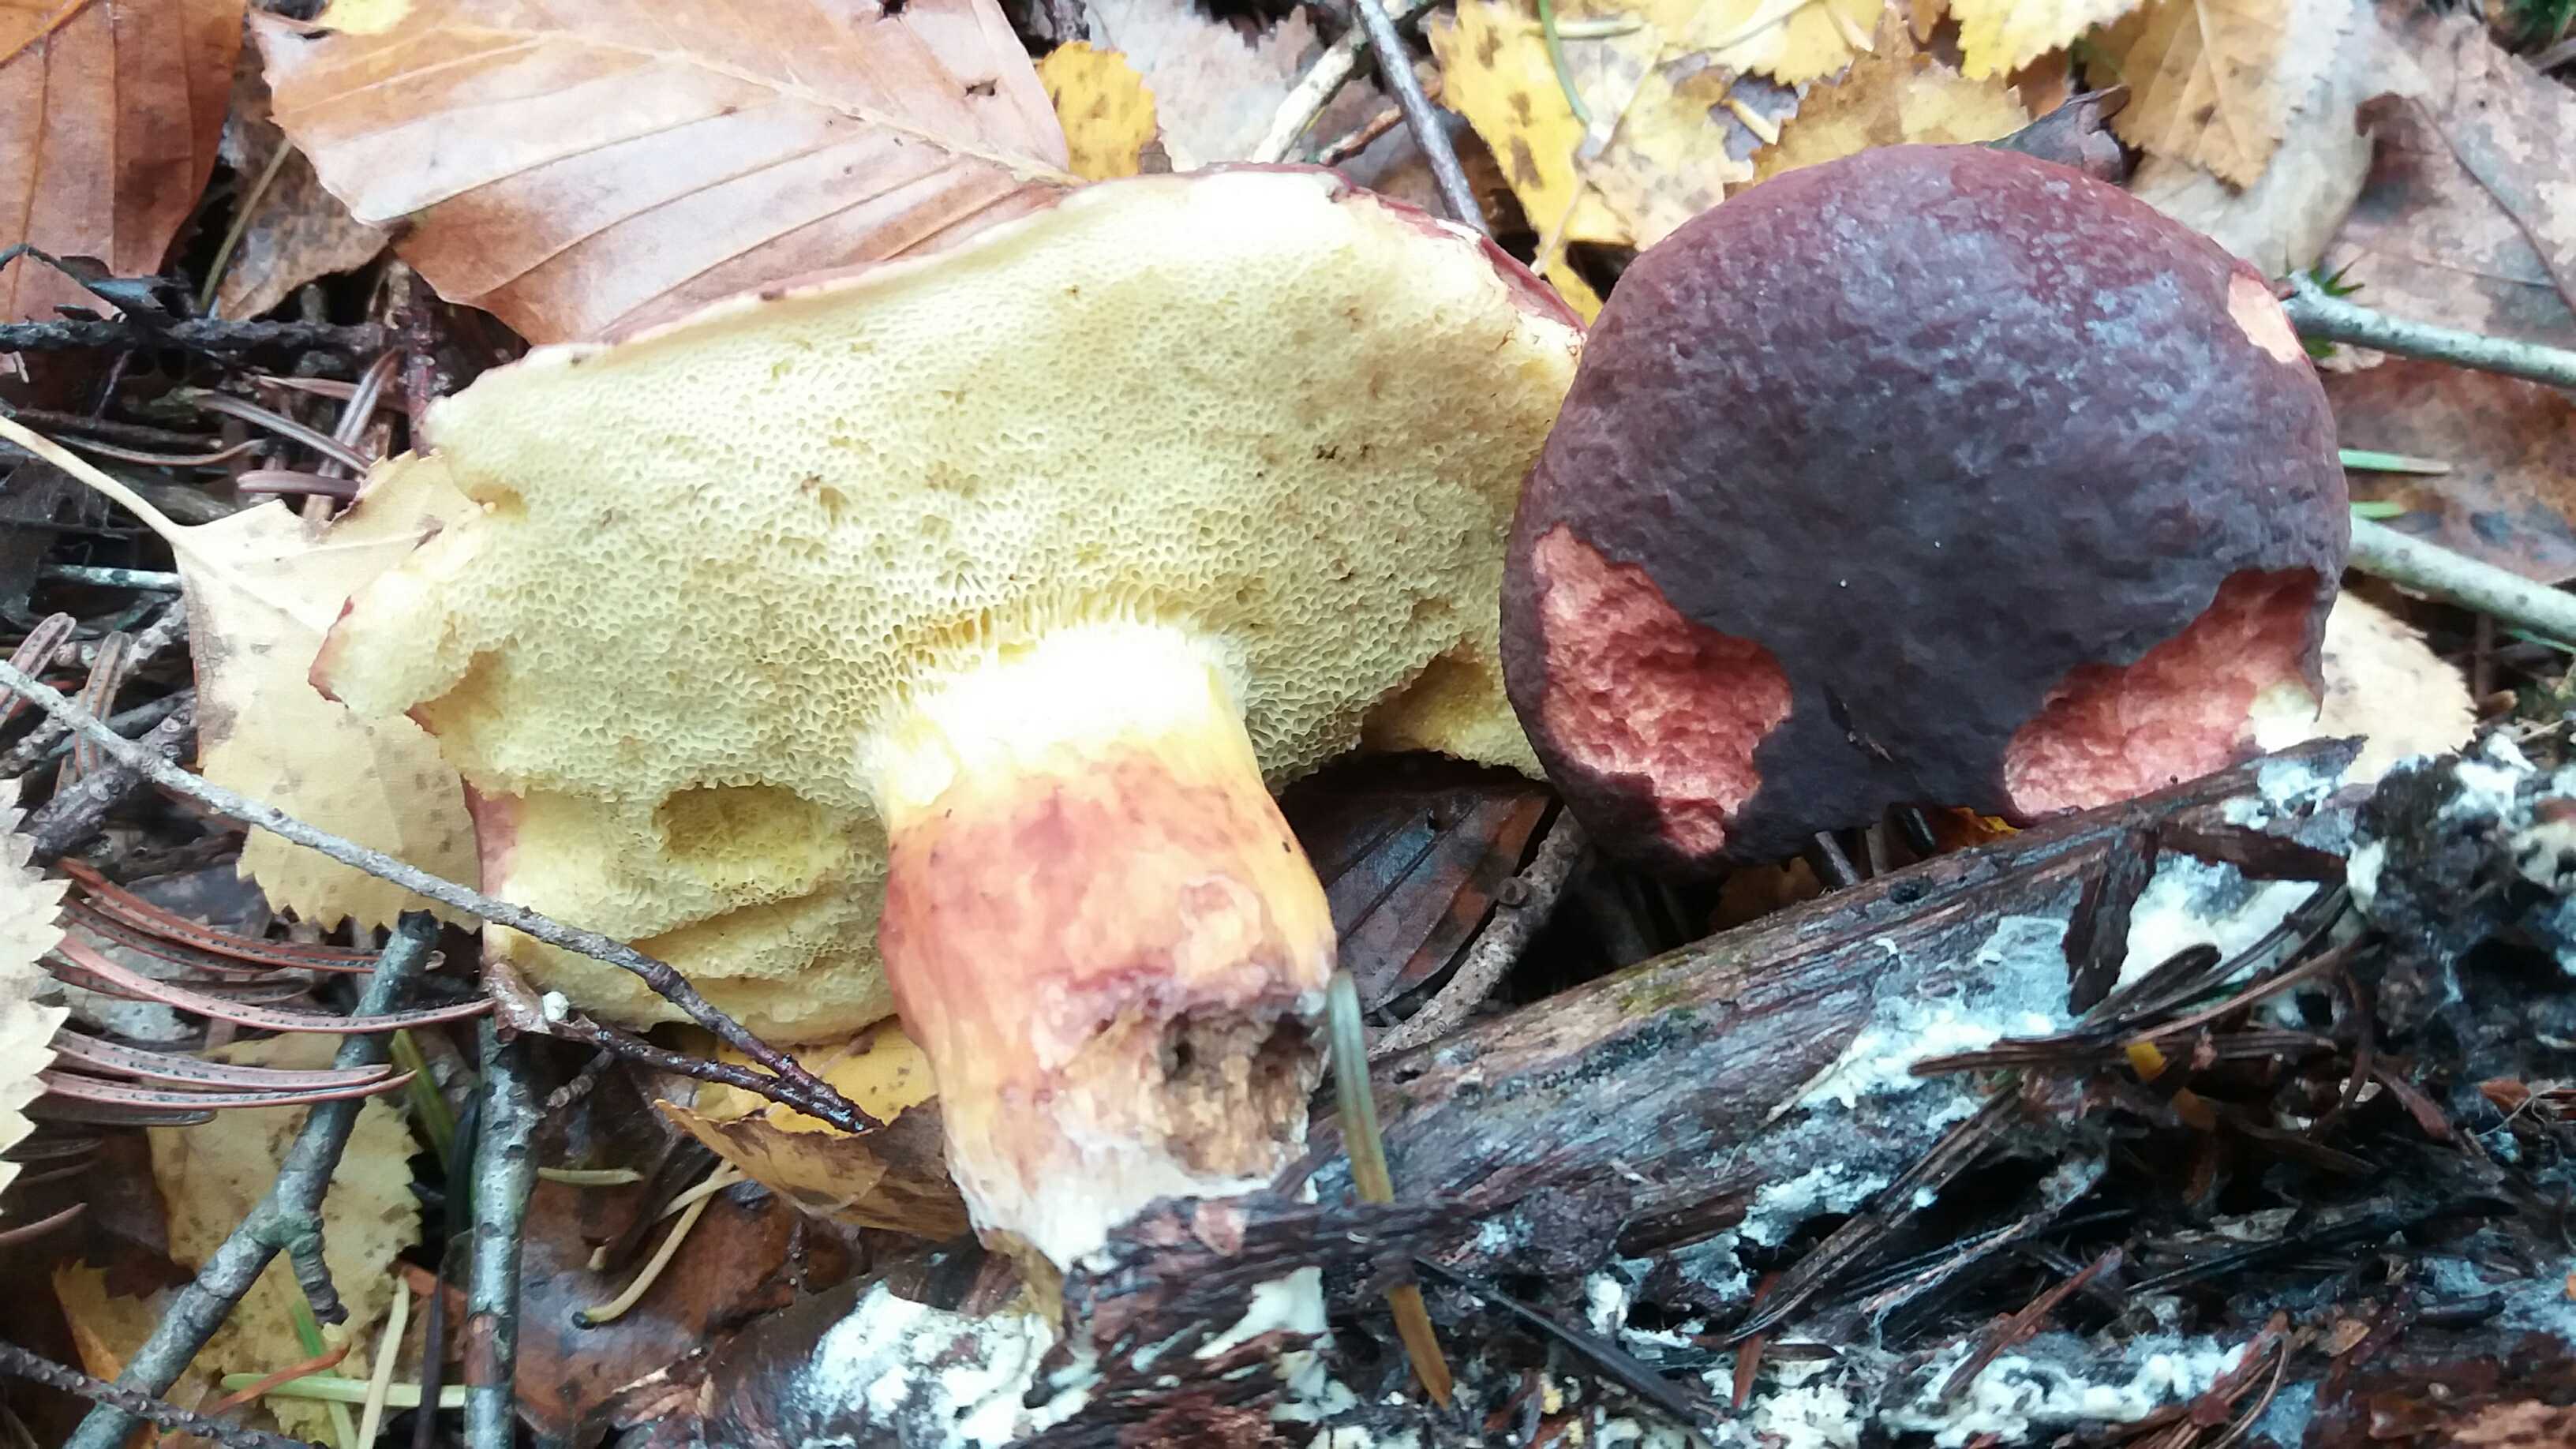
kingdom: Fungi
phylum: Basidiomycota
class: Agaricomycetes
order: Boletales
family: Boletaceae
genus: Xerocomellus
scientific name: Xerocomellus pruinatus
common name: dugget rørhat
